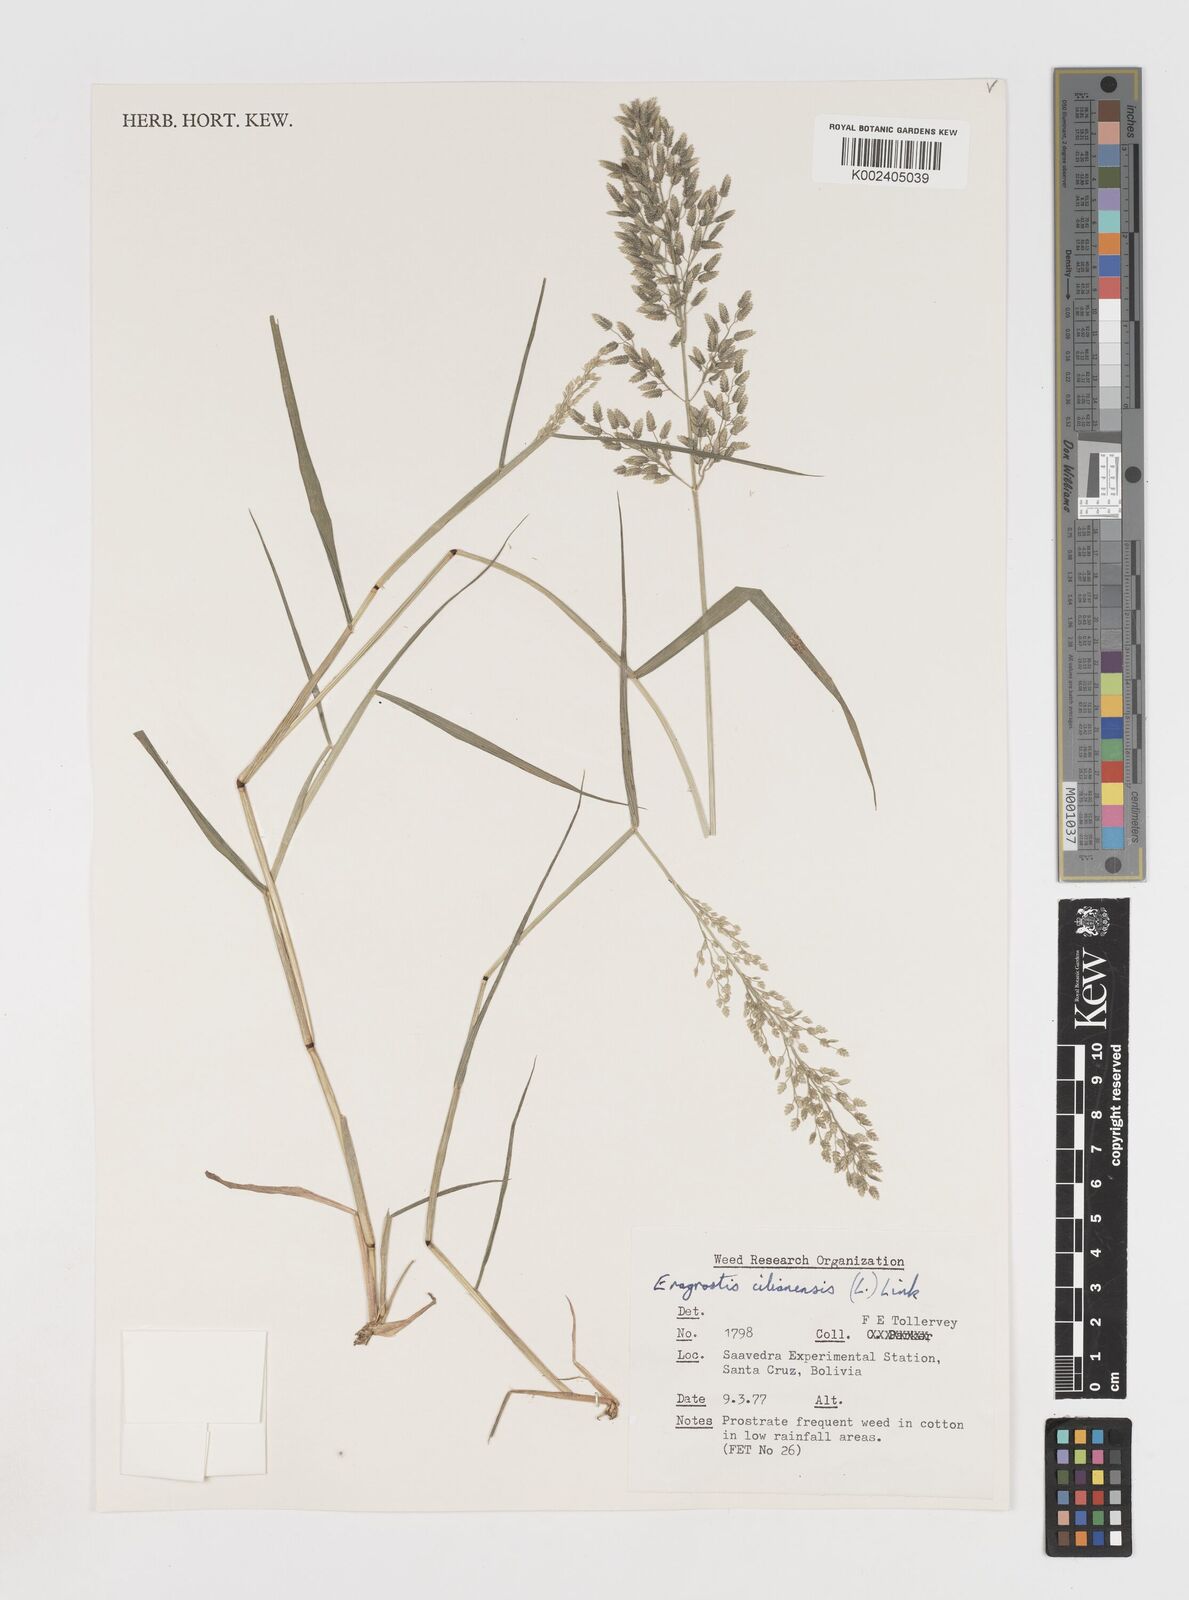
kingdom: Plantae
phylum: Tracheophyta
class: Liliopsida
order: Poales
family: Poaceae
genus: Eragrostis
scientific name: Eragrostis cilianensis
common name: Stinkgrass
